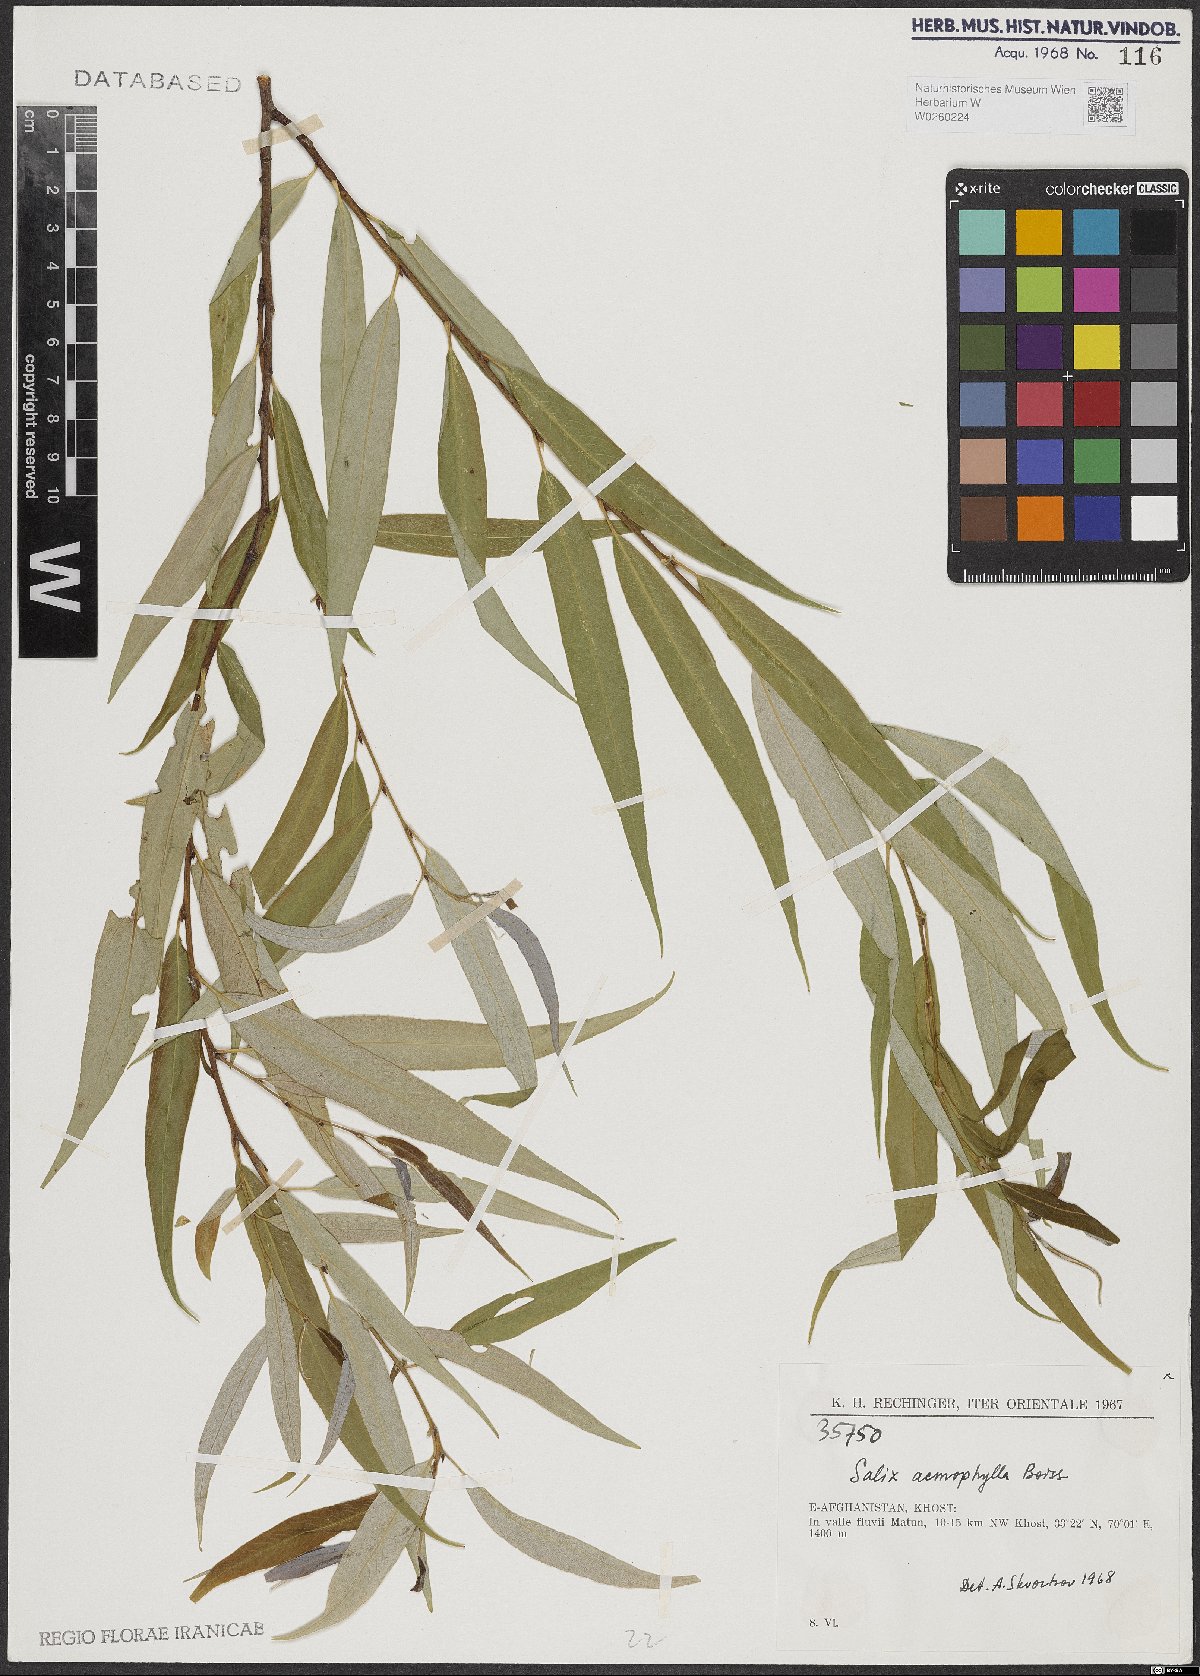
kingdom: Plantae
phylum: Tracheophyta
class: Magnoliopsida
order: Malpighiales
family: Salicaceae
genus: Salix
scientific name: Salix acmophylla
